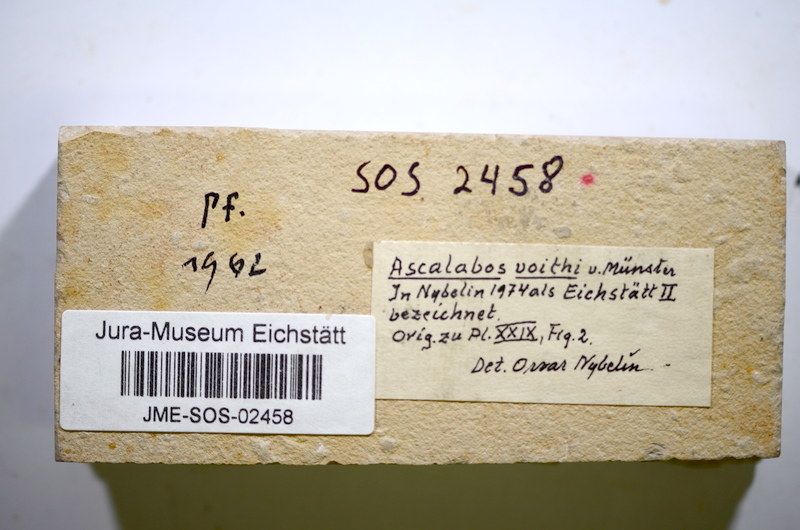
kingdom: Animalia
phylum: Chordata
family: Ascalaboidae
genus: Ascalabos
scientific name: Ascalabos voithii
